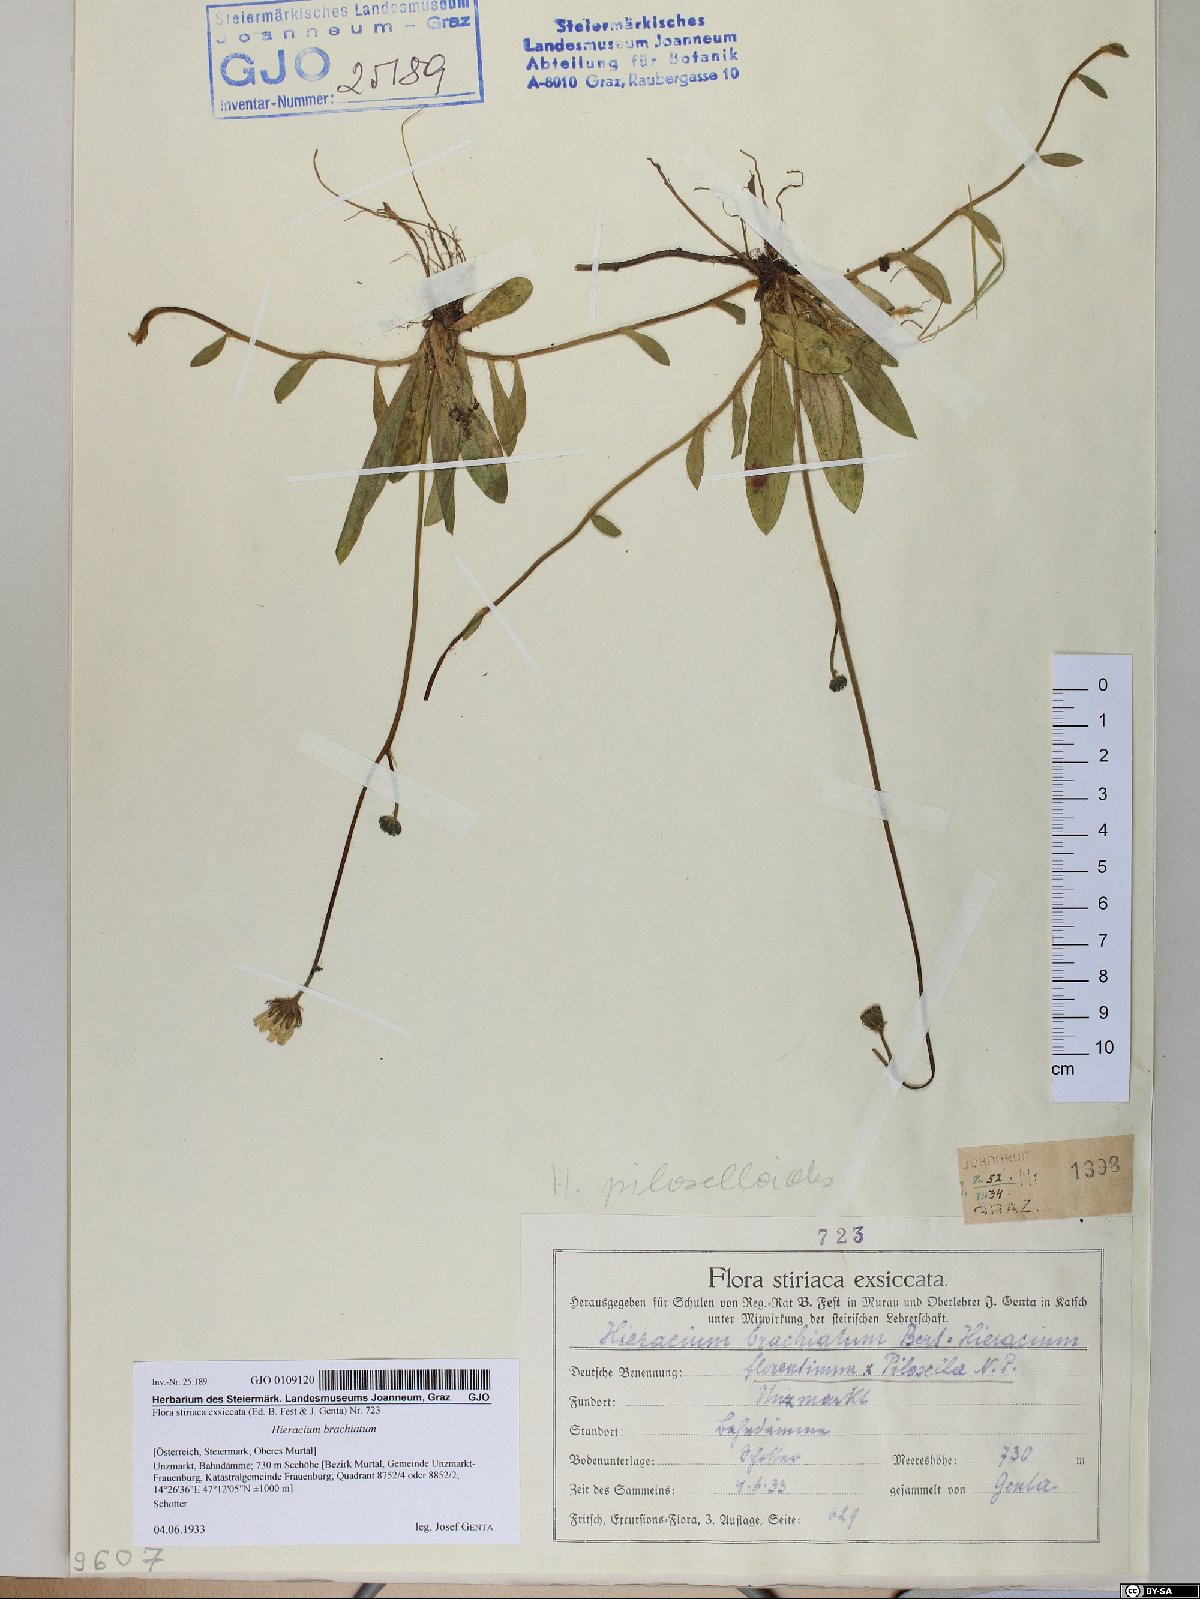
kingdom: Plantae
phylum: Tracheophyta
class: Magnoliopsida
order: Asterales
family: Asteraceae
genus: Pilosella
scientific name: Pilosella acutifolia
